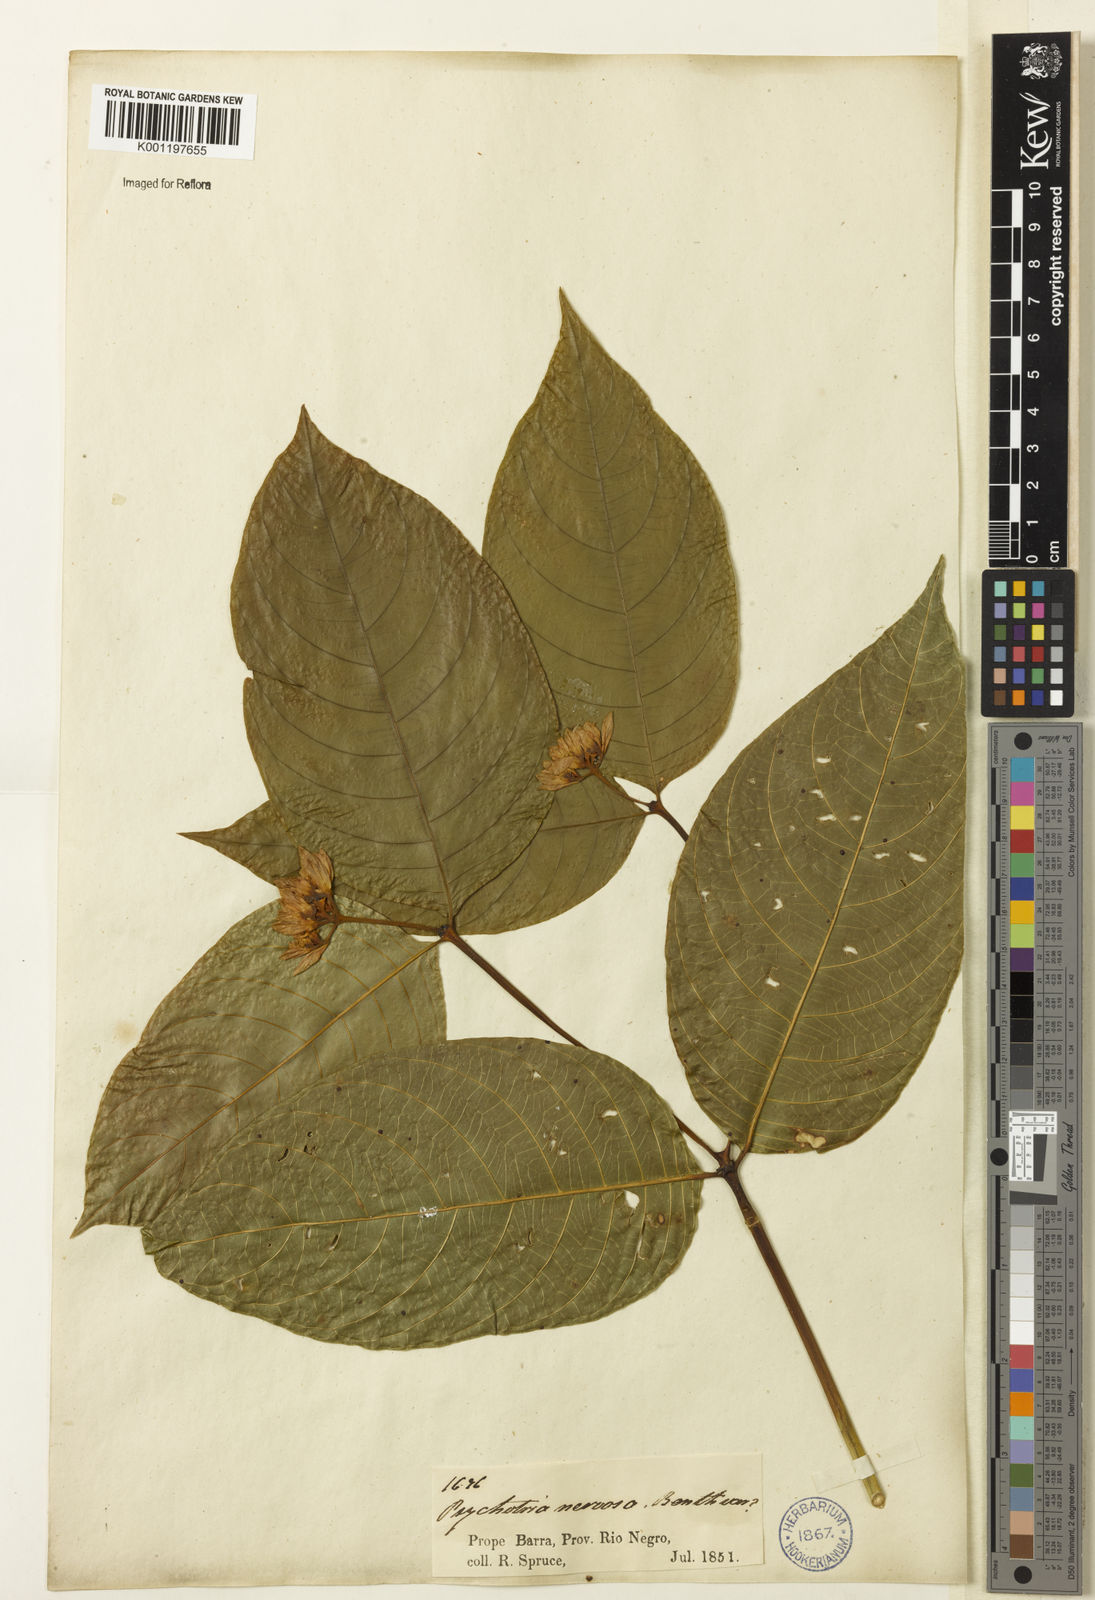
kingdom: Plantae
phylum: Tracheophyta
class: Magnoliopsida
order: Gentianales
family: Rubiaceae
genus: Palicourea
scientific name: Palicourea justiciifolia
